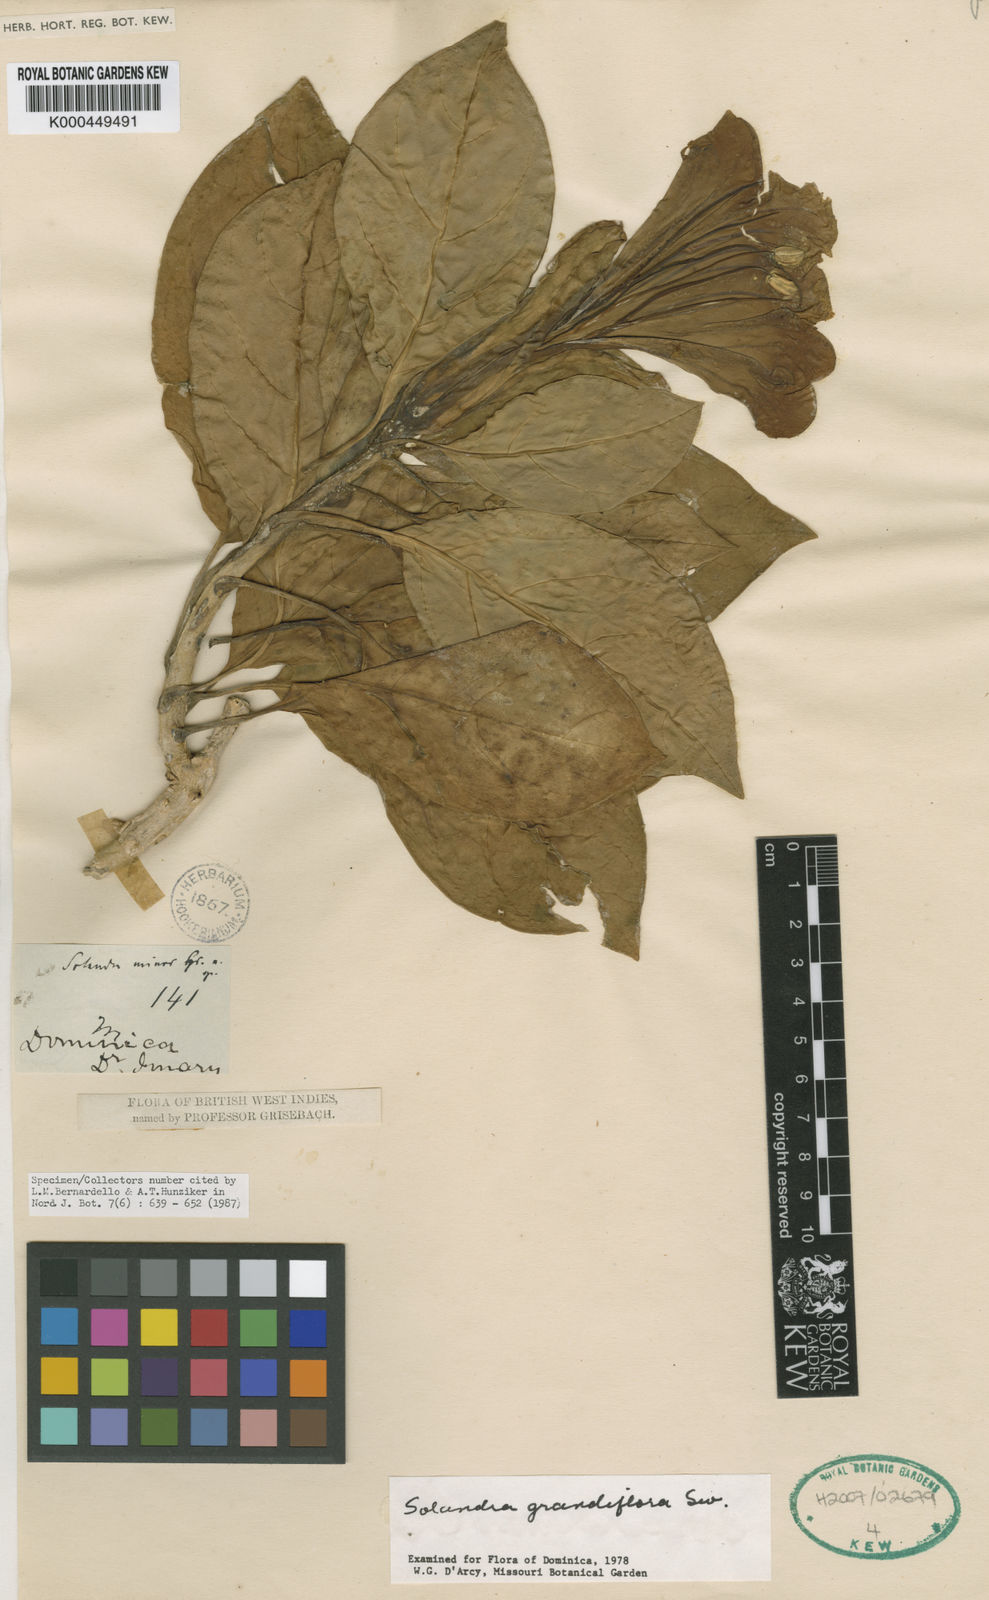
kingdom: Plantae
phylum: Tracheophyta
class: Magnoliopsida
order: Solanales
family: Solanaceae
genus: Solandra
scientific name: Solandra grandiflora
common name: Showy chalicevine
